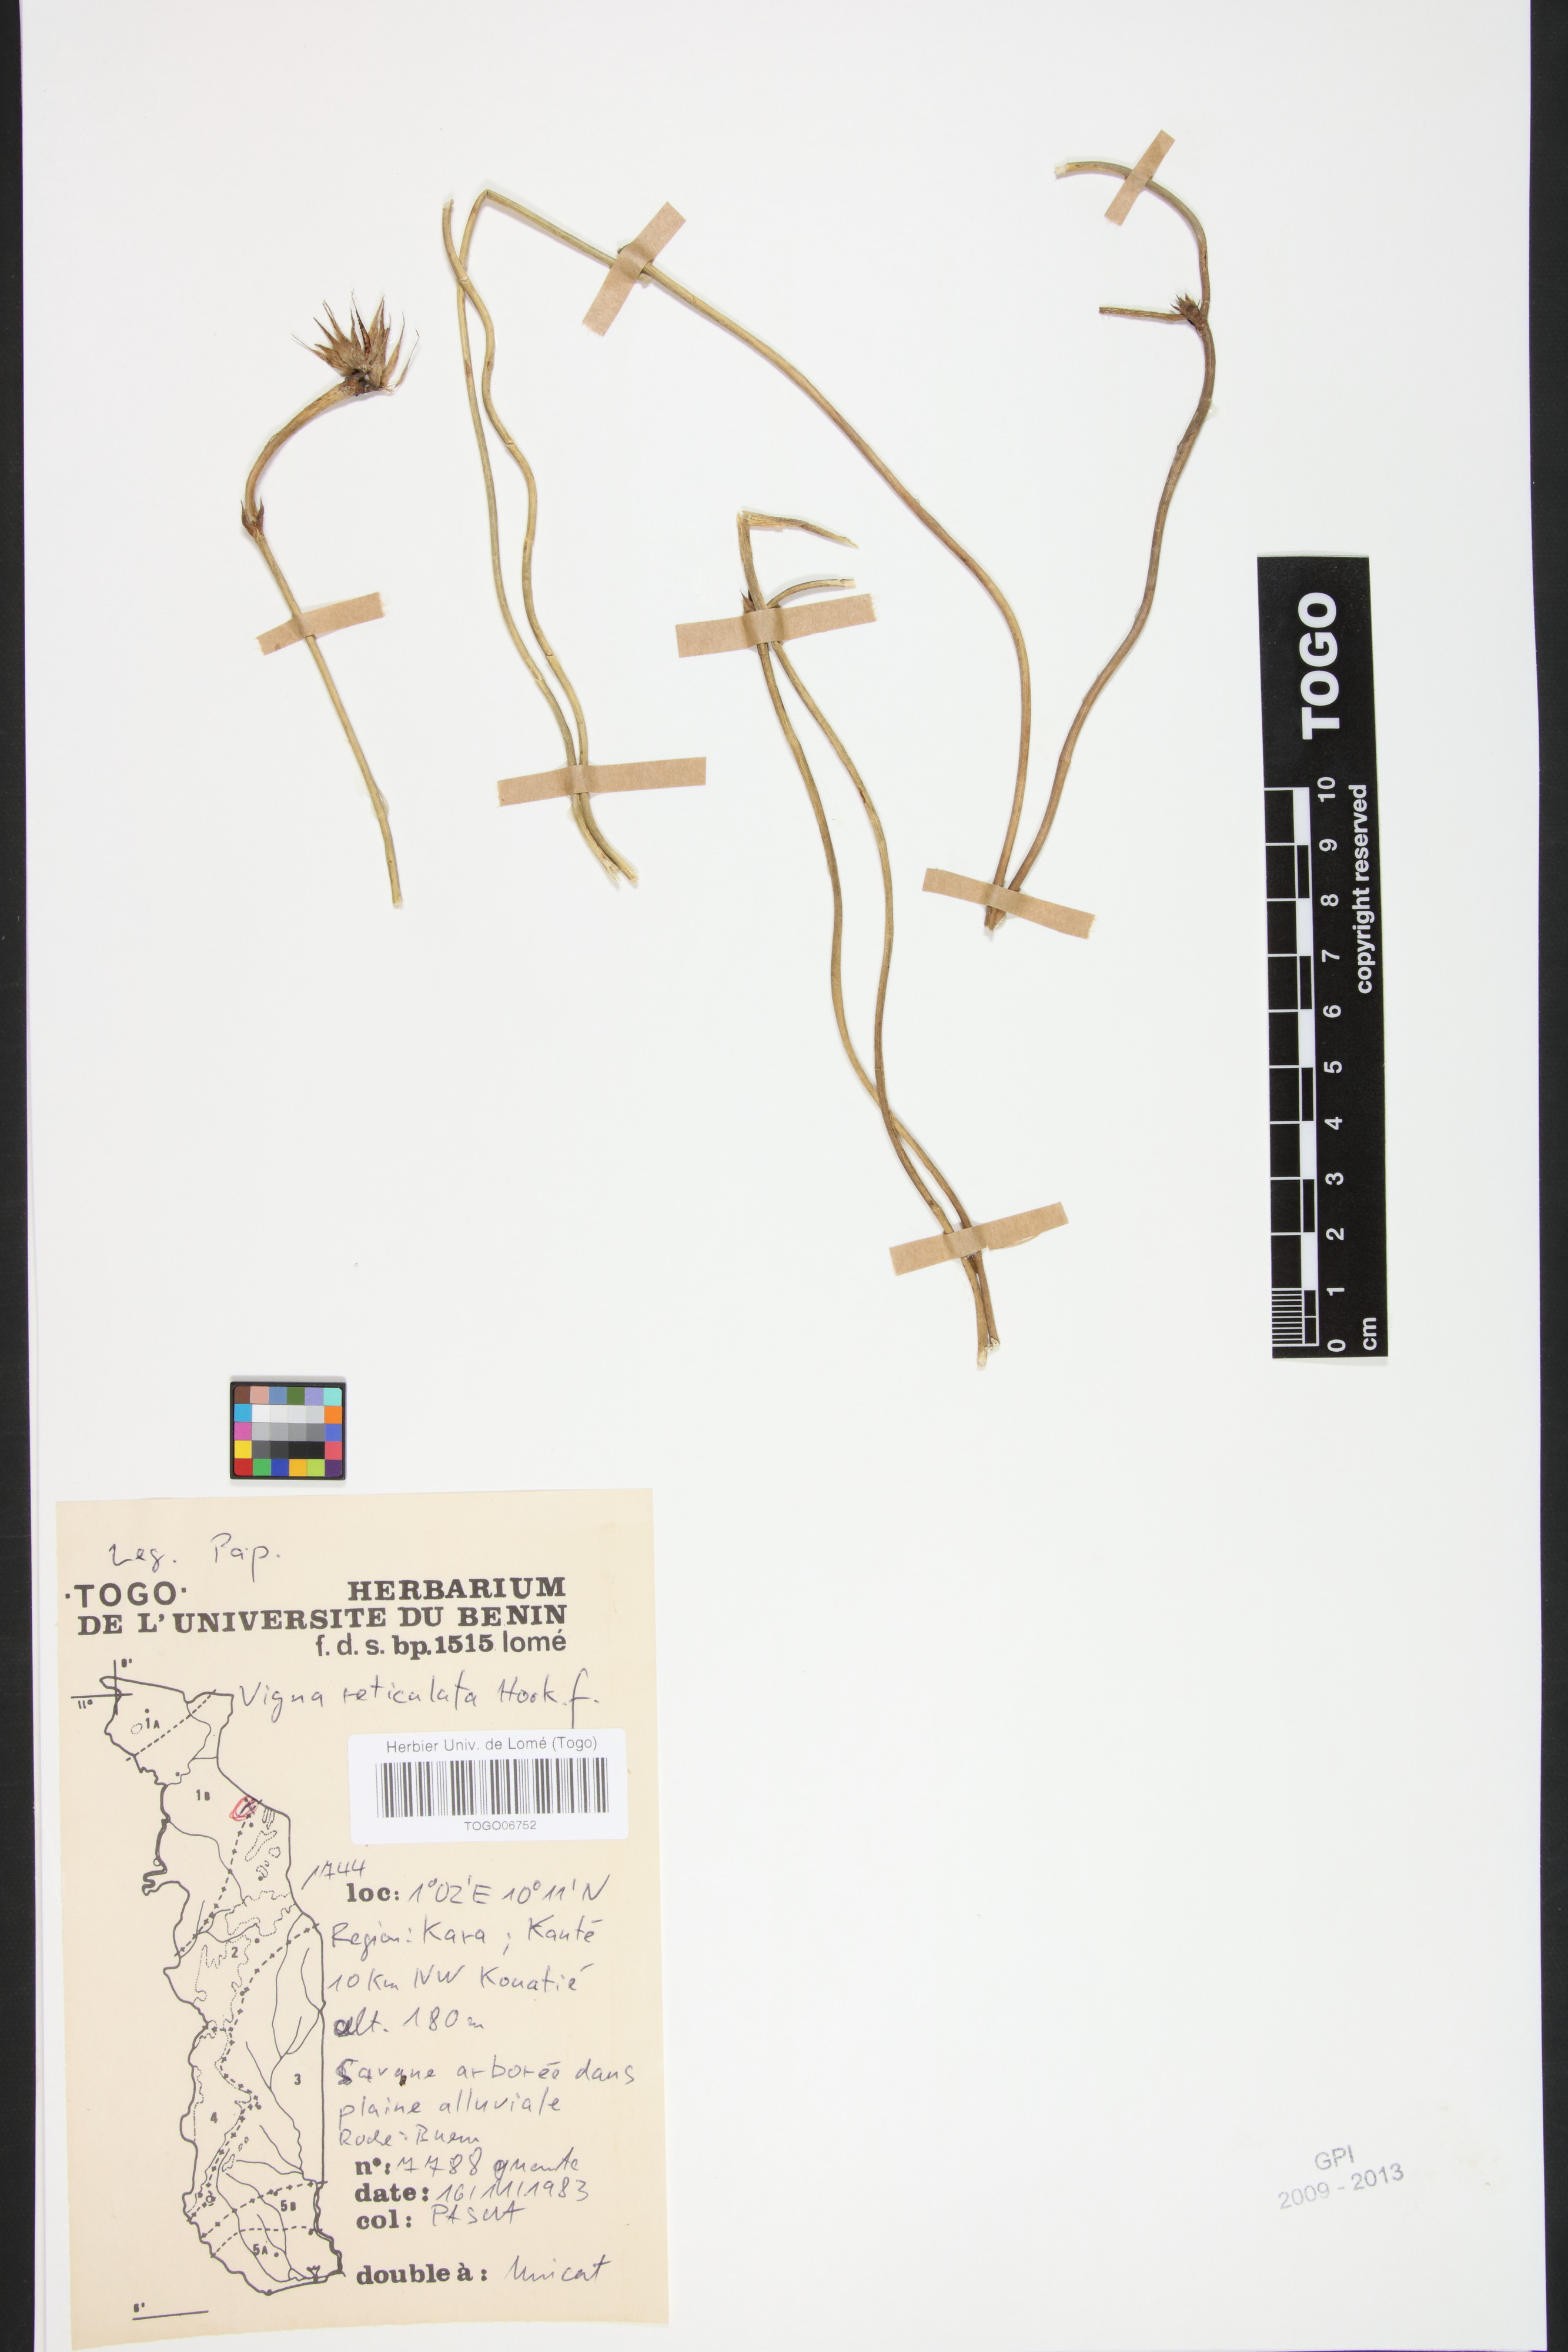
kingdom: Plantae
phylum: Tracheophyta
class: Magnoliopsida
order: Fabales
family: Fabaceae
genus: Vigna
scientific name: Vigna reticulata
